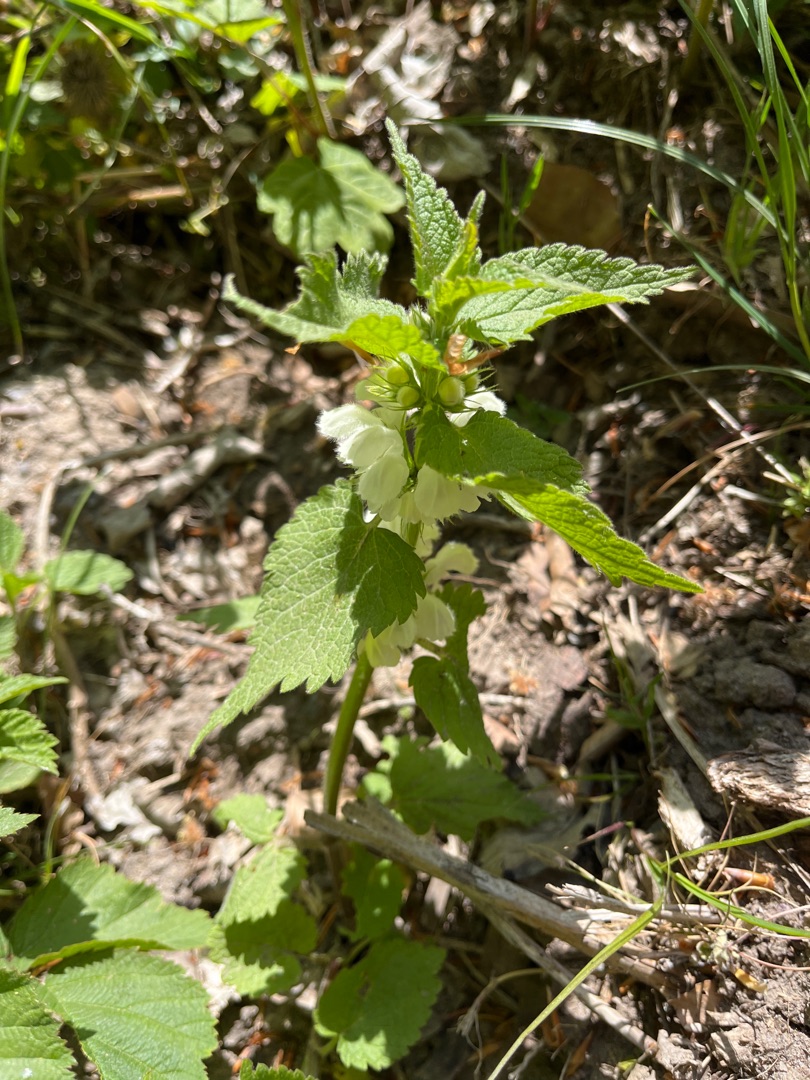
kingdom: Plantae
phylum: Tracheophyta
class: Magnoliopsida
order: Lamiales
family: Lamiaceae
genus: Lamium
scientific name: Lamium album
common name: Døvnælde
